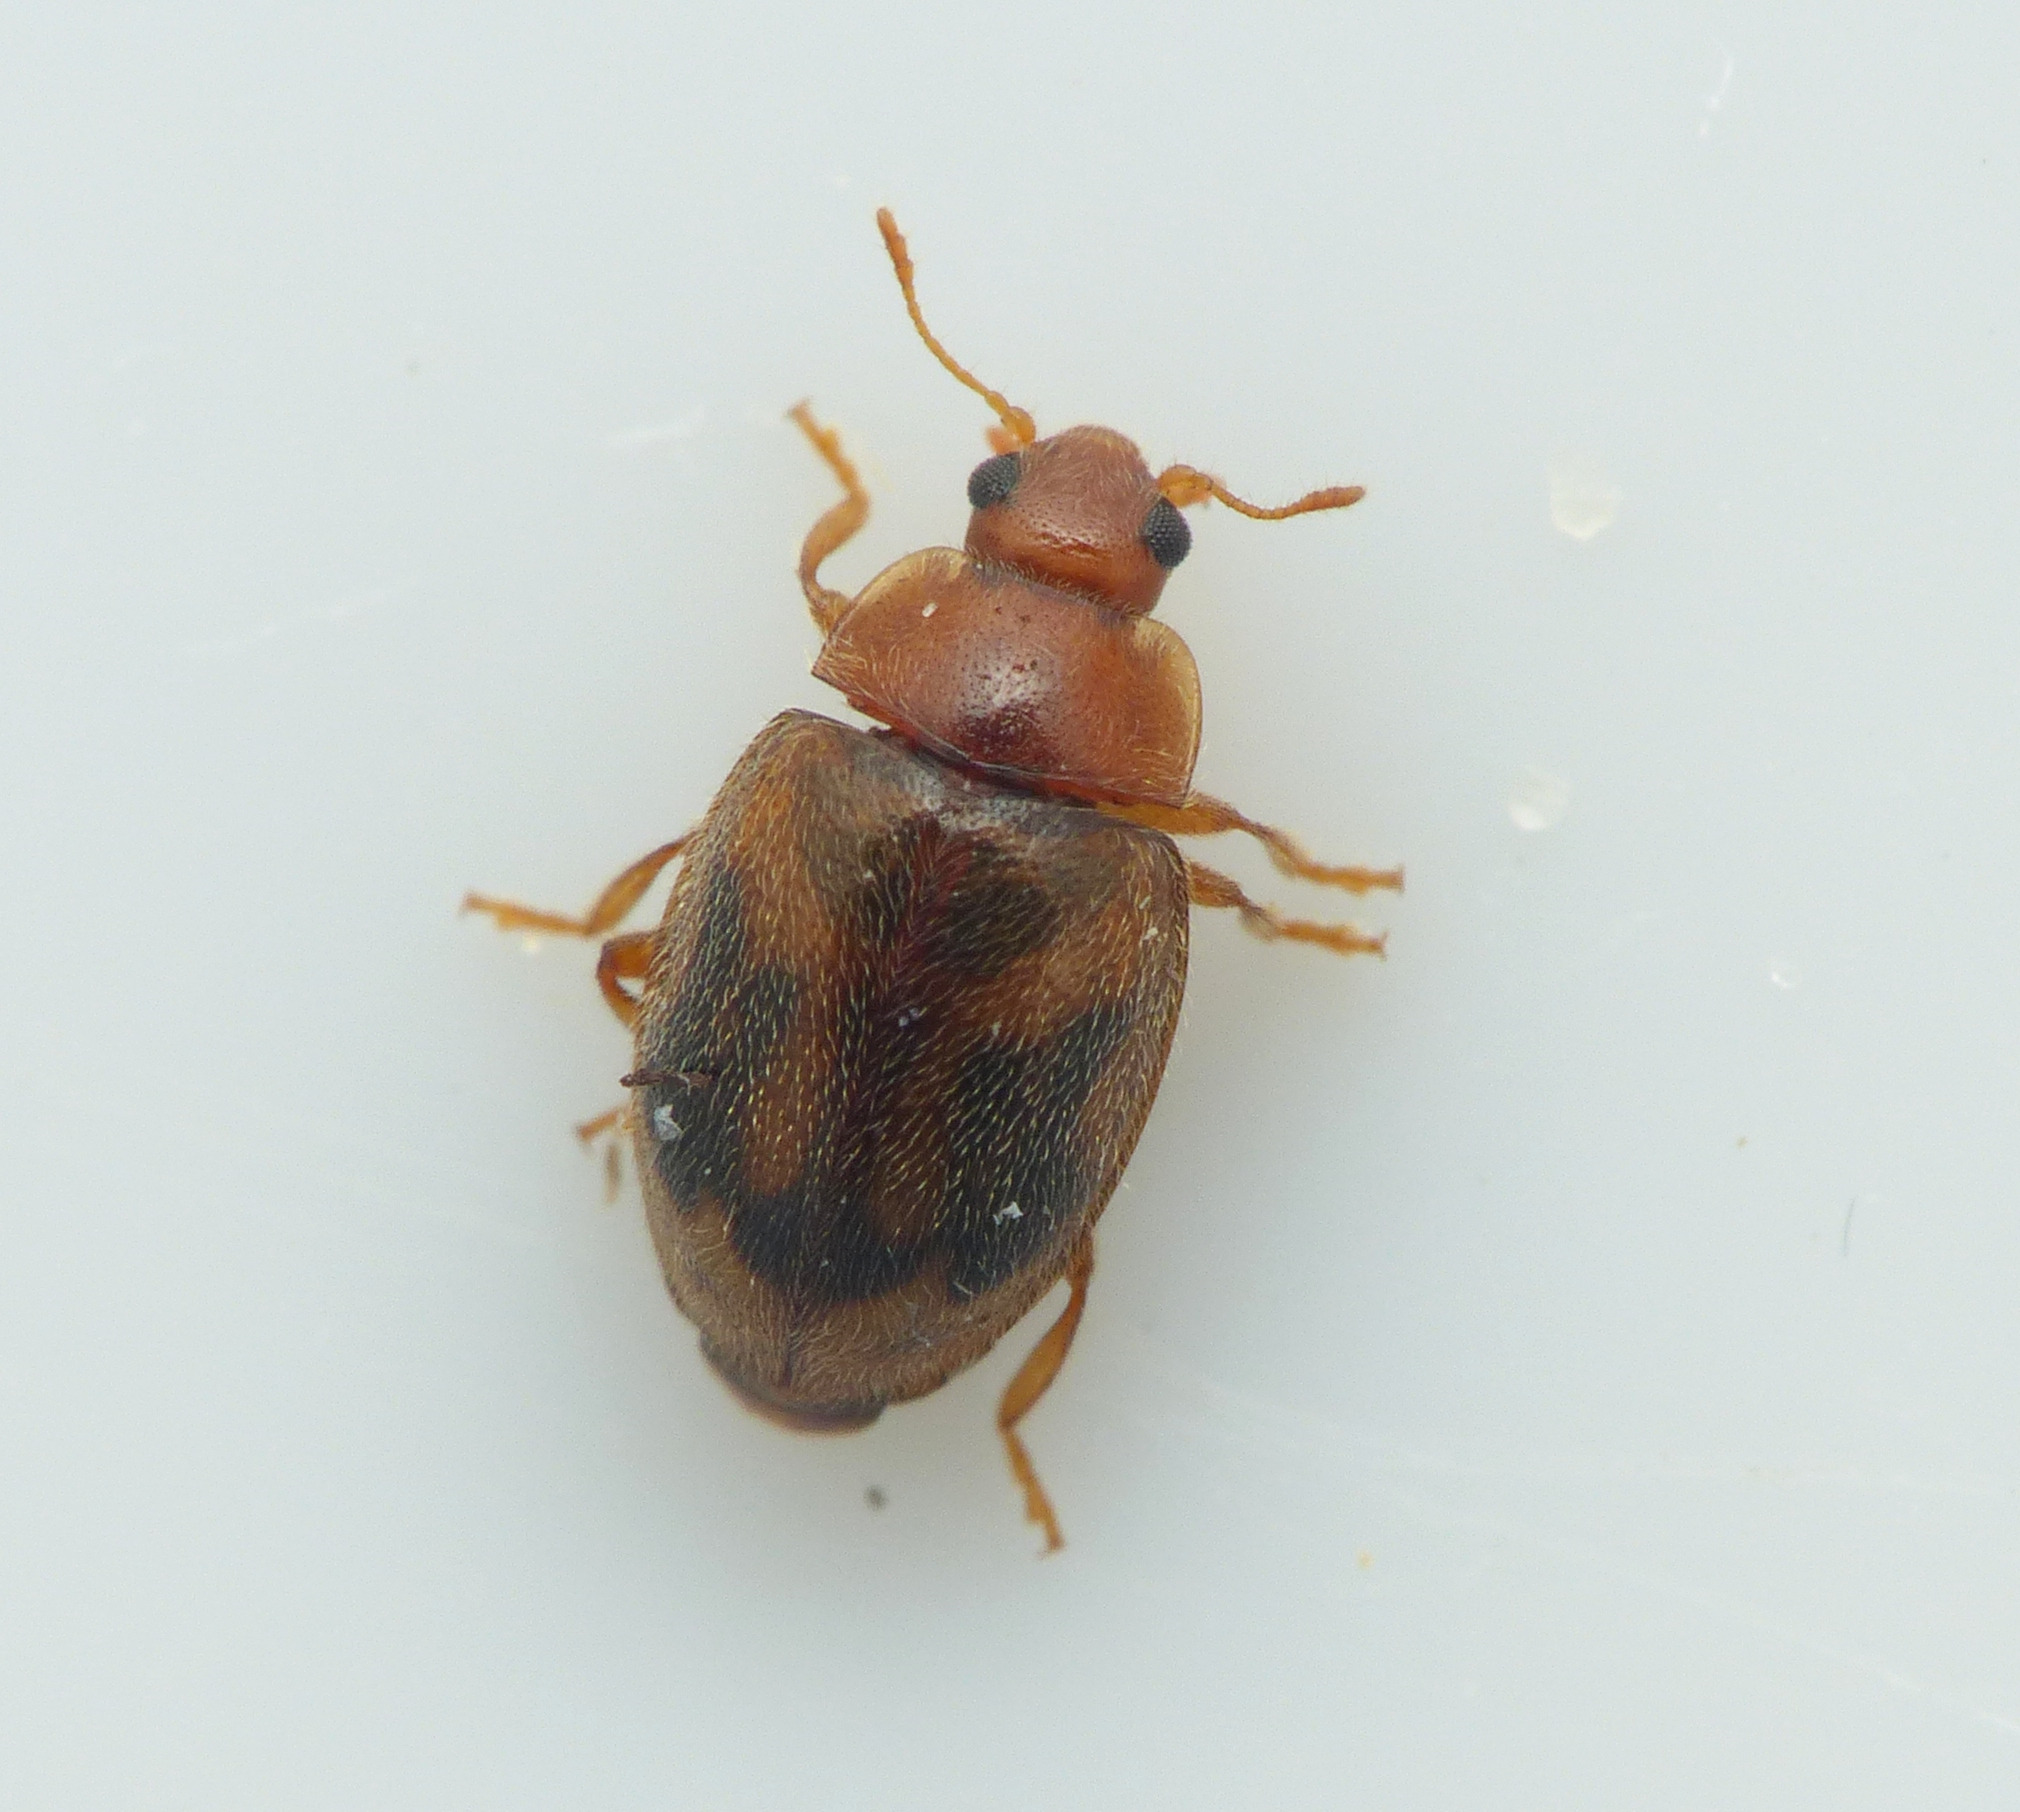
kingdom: Animalia
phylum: Arthropoda
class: Insecta
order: Coleoptera
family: Coccinellidae
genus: Rhyzobius
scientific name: Rhyzobius chrysomeloides
